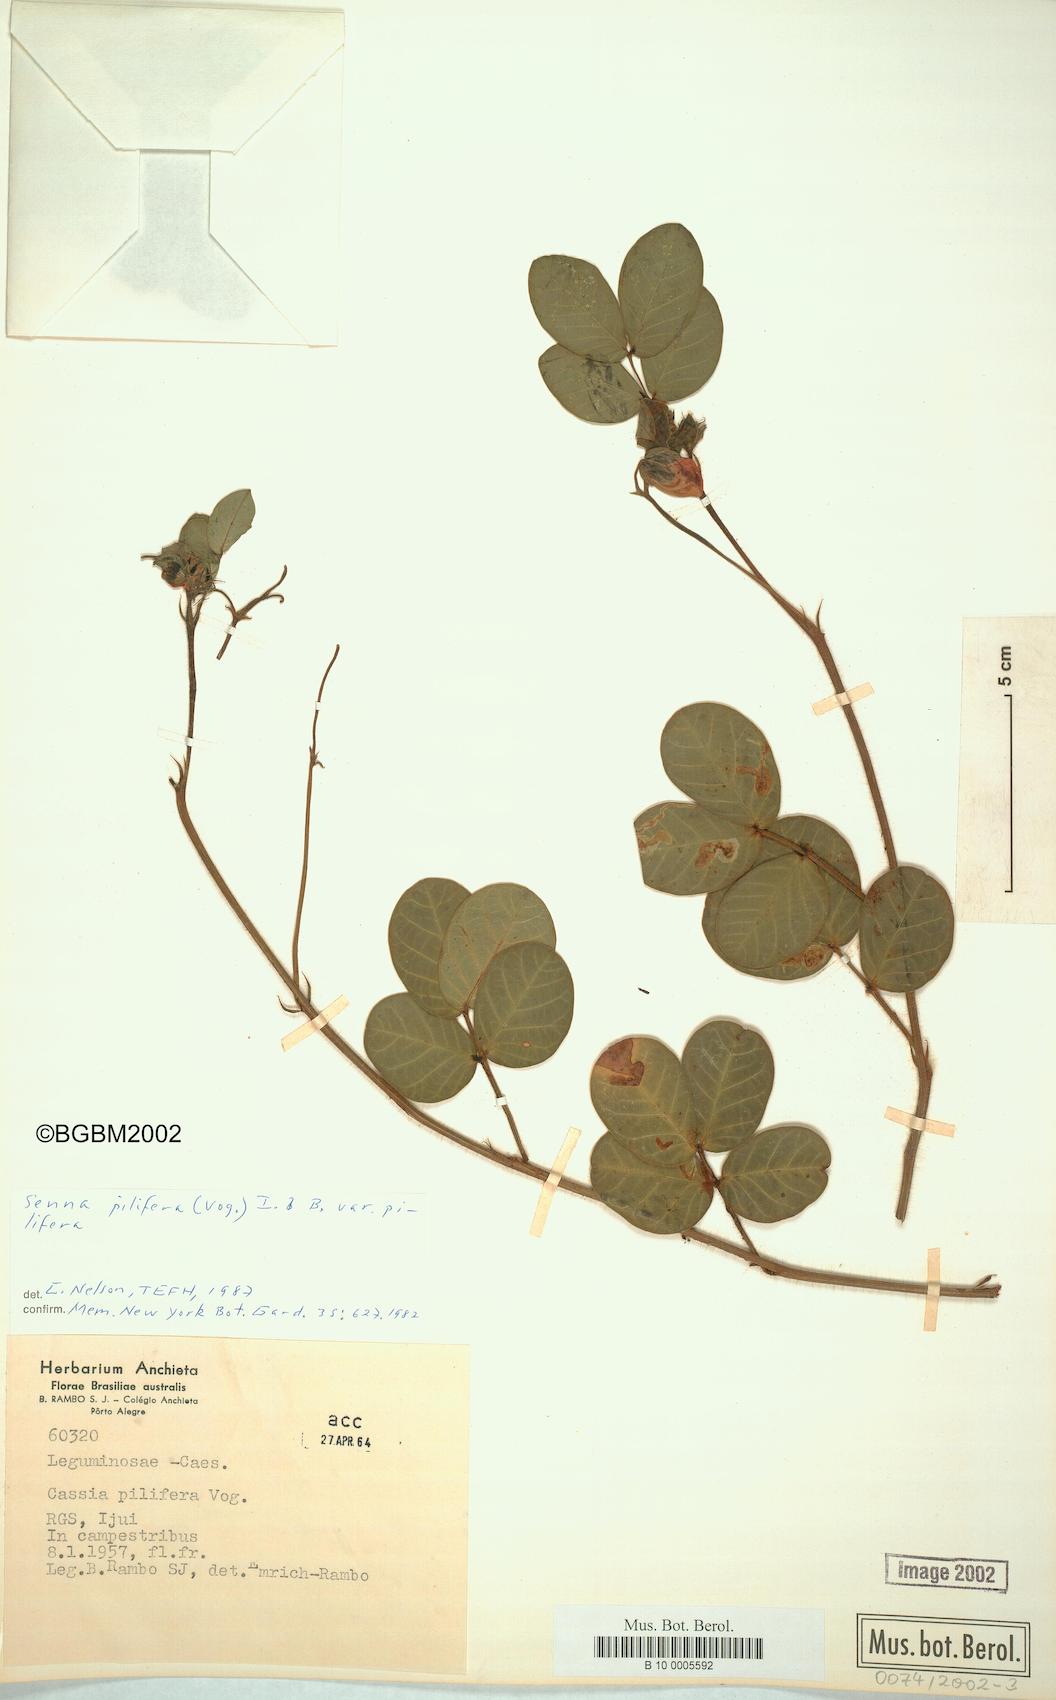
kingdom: Plantae
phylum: Tracheophyta
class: Magnoliopsida
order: Fabales
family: Fabaceae
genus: Senna
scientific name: Senna pilifera
